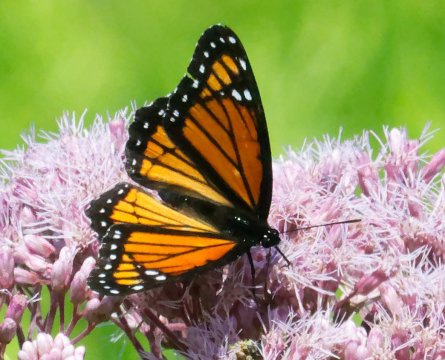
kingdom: Animalia
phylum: Arthropoda
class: Insecta
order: Lepidoptera
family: Nymphalidae
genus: Limenitis
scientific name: Limenitis archippus
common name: Viceroy
